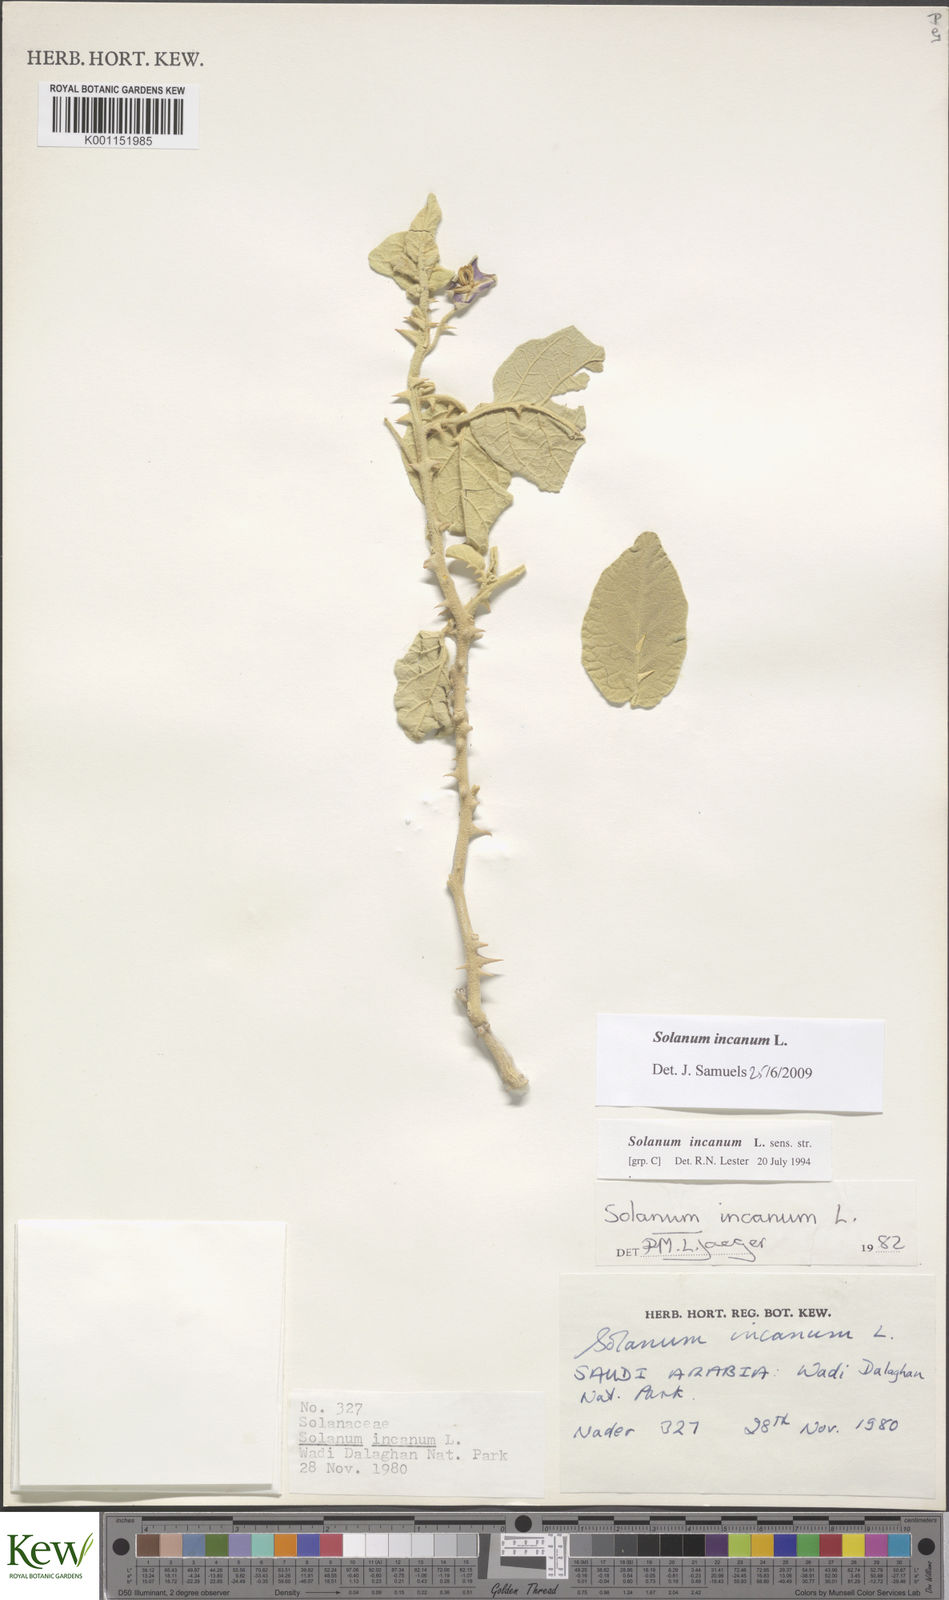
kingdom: Plantae
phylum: Tracheophyta
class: Magnoliopsida
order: Solanales
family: Solanaceae
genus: Solanum
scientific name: Solanum incanum
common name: Bitter apple
